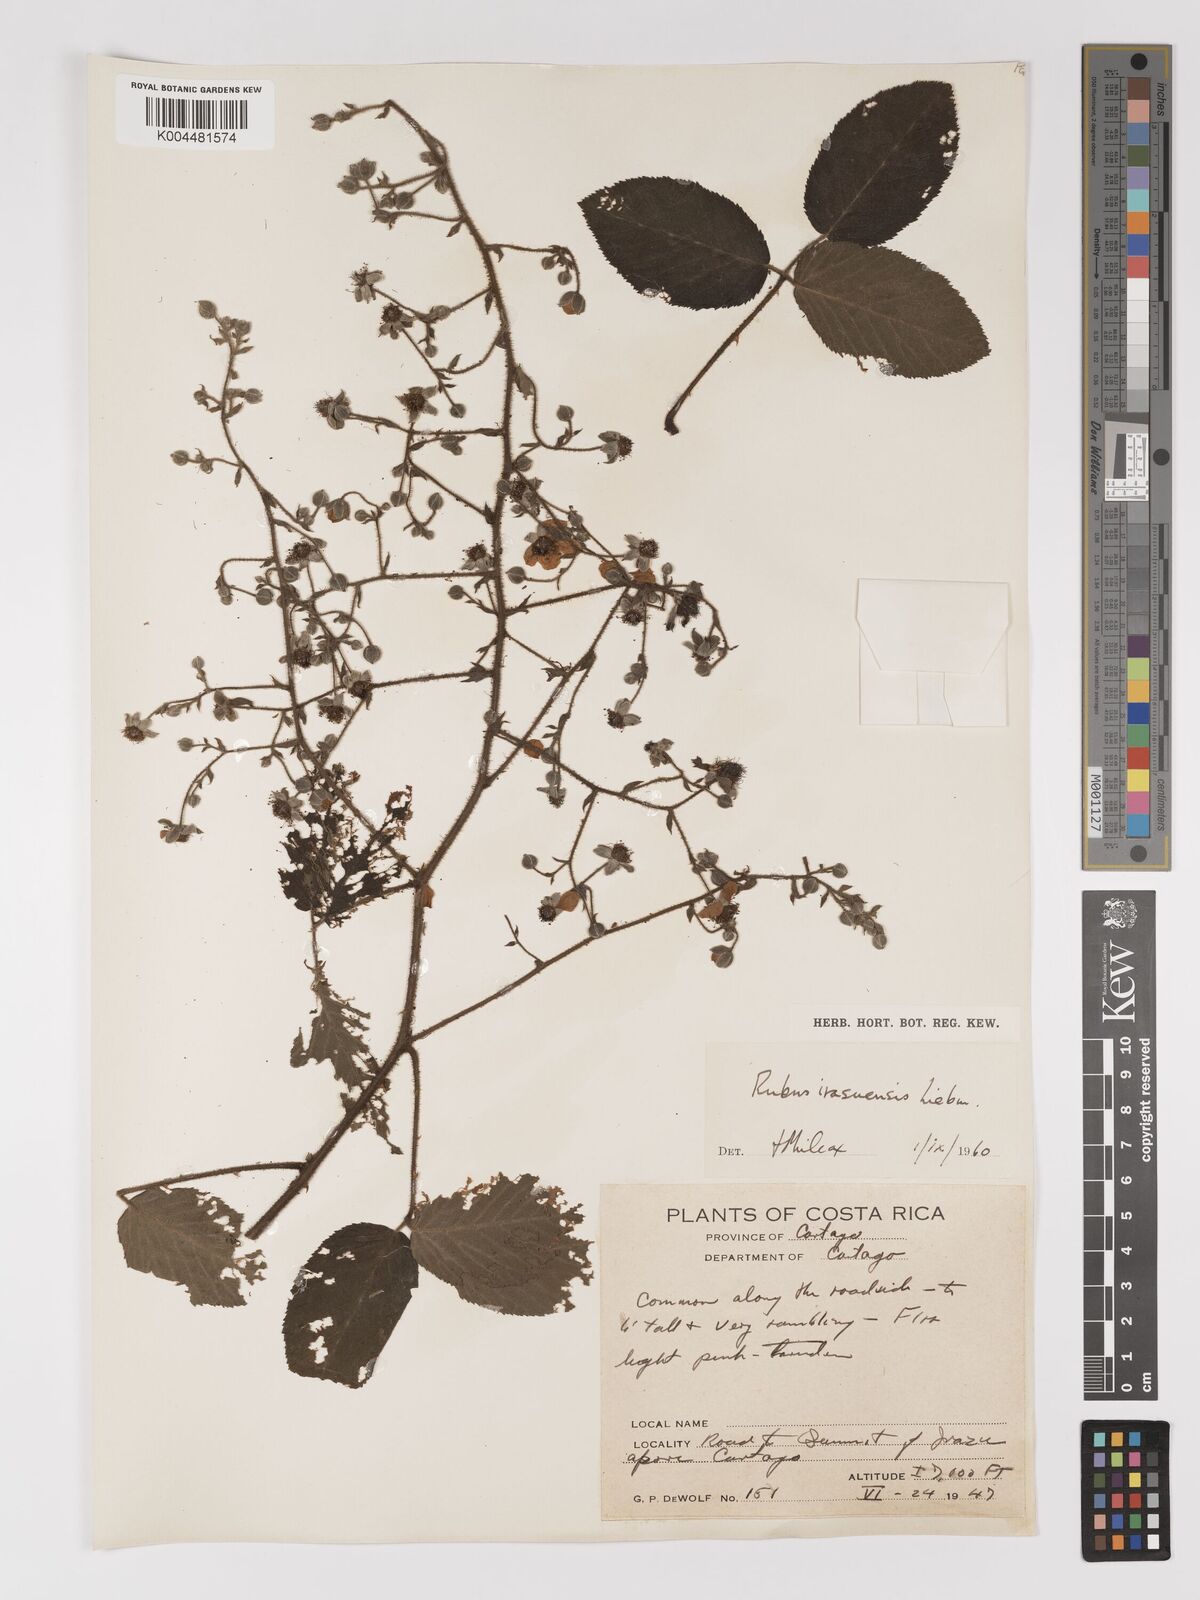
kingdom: Plantae
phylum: Tracheophyta
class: Magnoliopsida
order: Rosales
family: Rosaceae
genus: Rubus
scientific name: Rubus costaricanus
